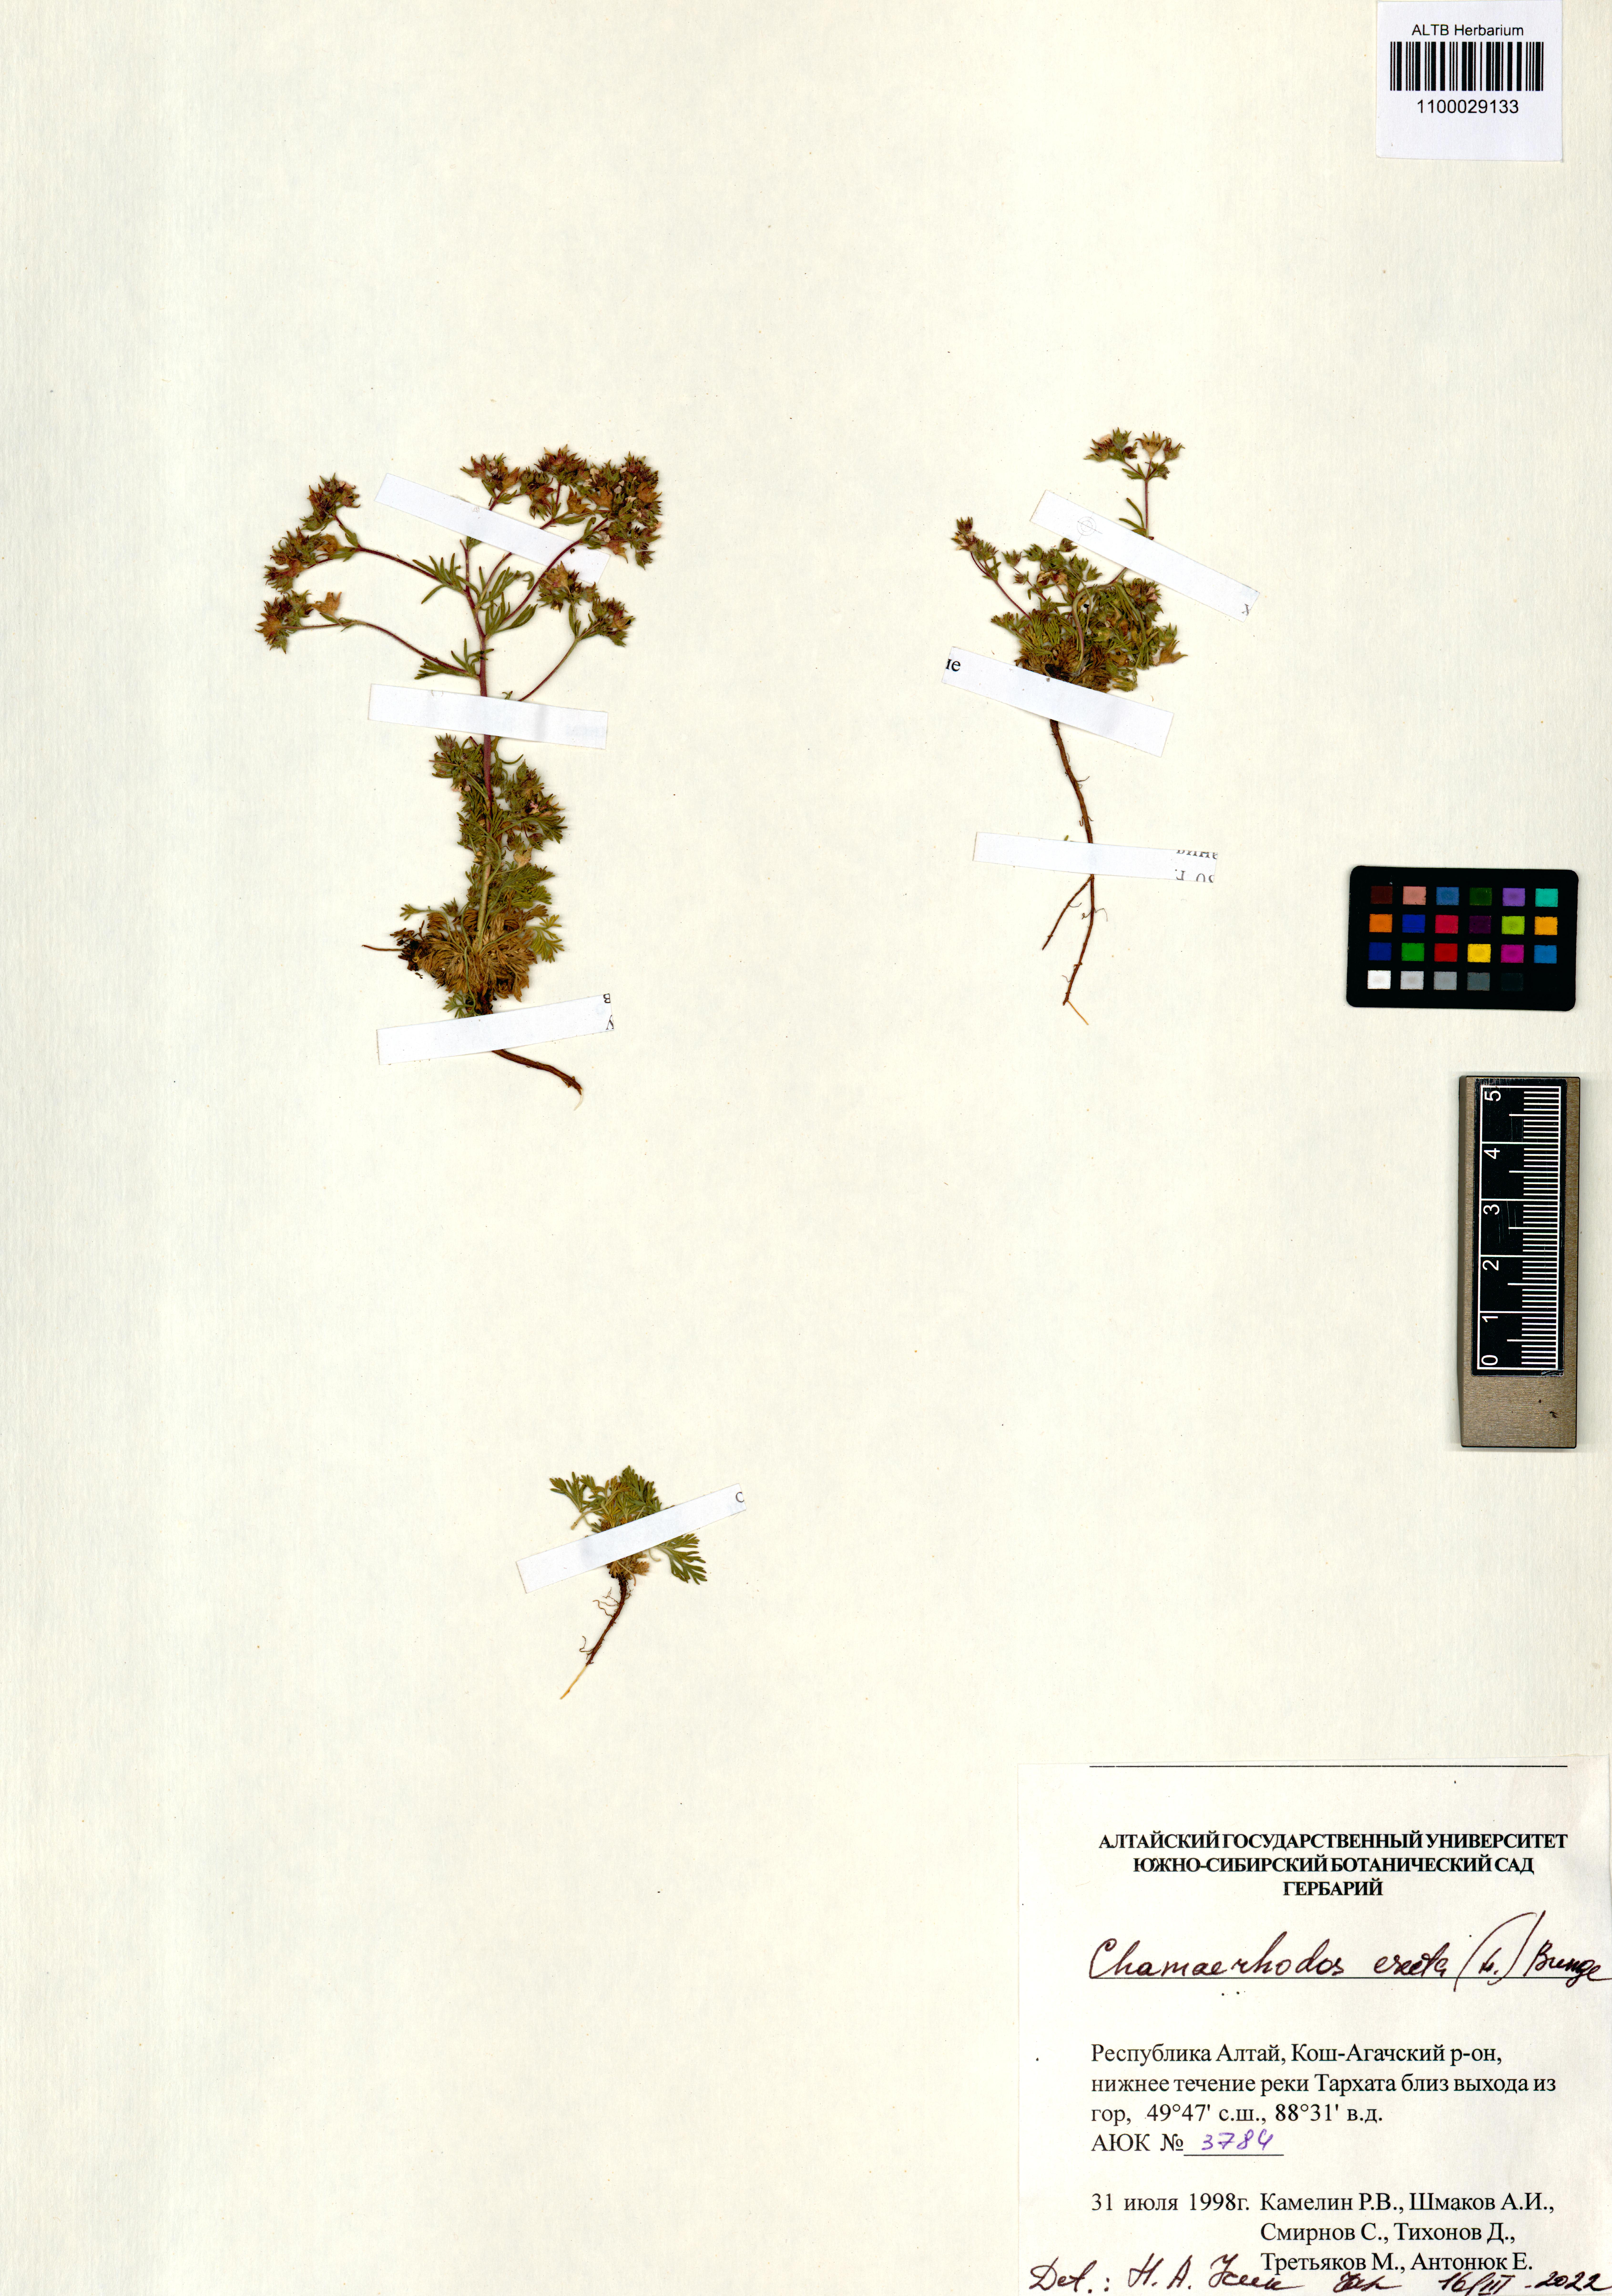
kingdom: Plantae
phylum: Tracheophyta
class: Magnoliopsida
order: Rosales
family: Rosaceae
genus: Chamaerhodos
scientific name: Chamaerhodos erecta
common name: American chamaerhodos
